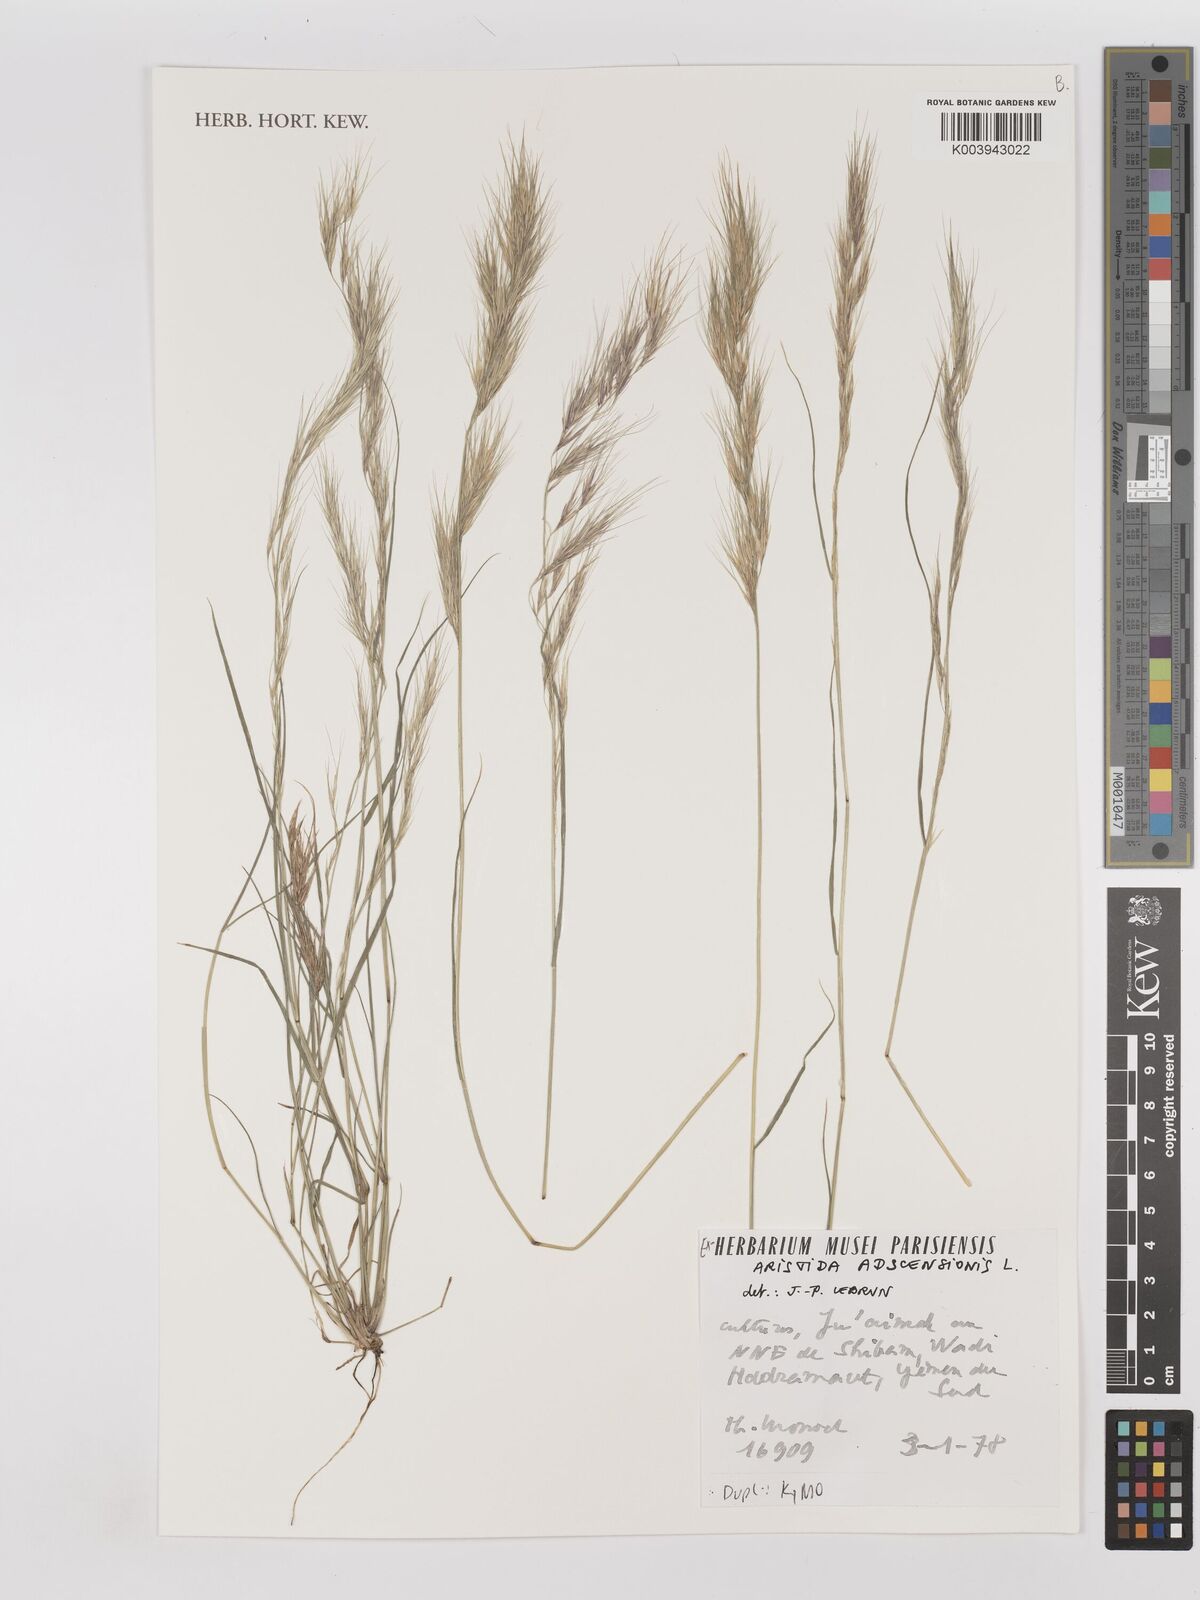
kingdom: Plantae
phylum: Tracheophyta
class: Liliopsida
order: Poales
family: Poaceae
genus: Aristida
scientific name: Aristida adscensionis
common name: Sixweeks threeawn
